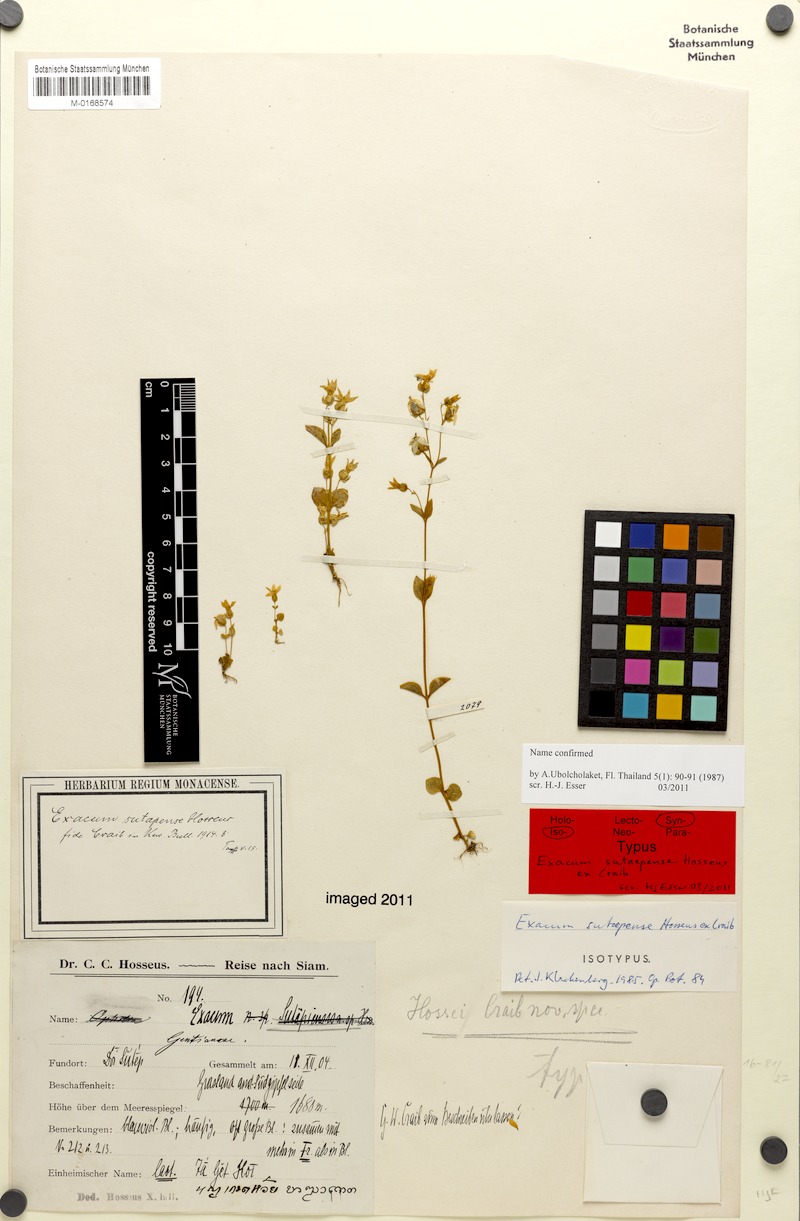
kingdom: Plantae
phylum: Tracheophyta
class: Magnoliopsida
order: Gentianales
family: Gentianaceae
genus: Exacum
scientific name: Exacum sutaepense
